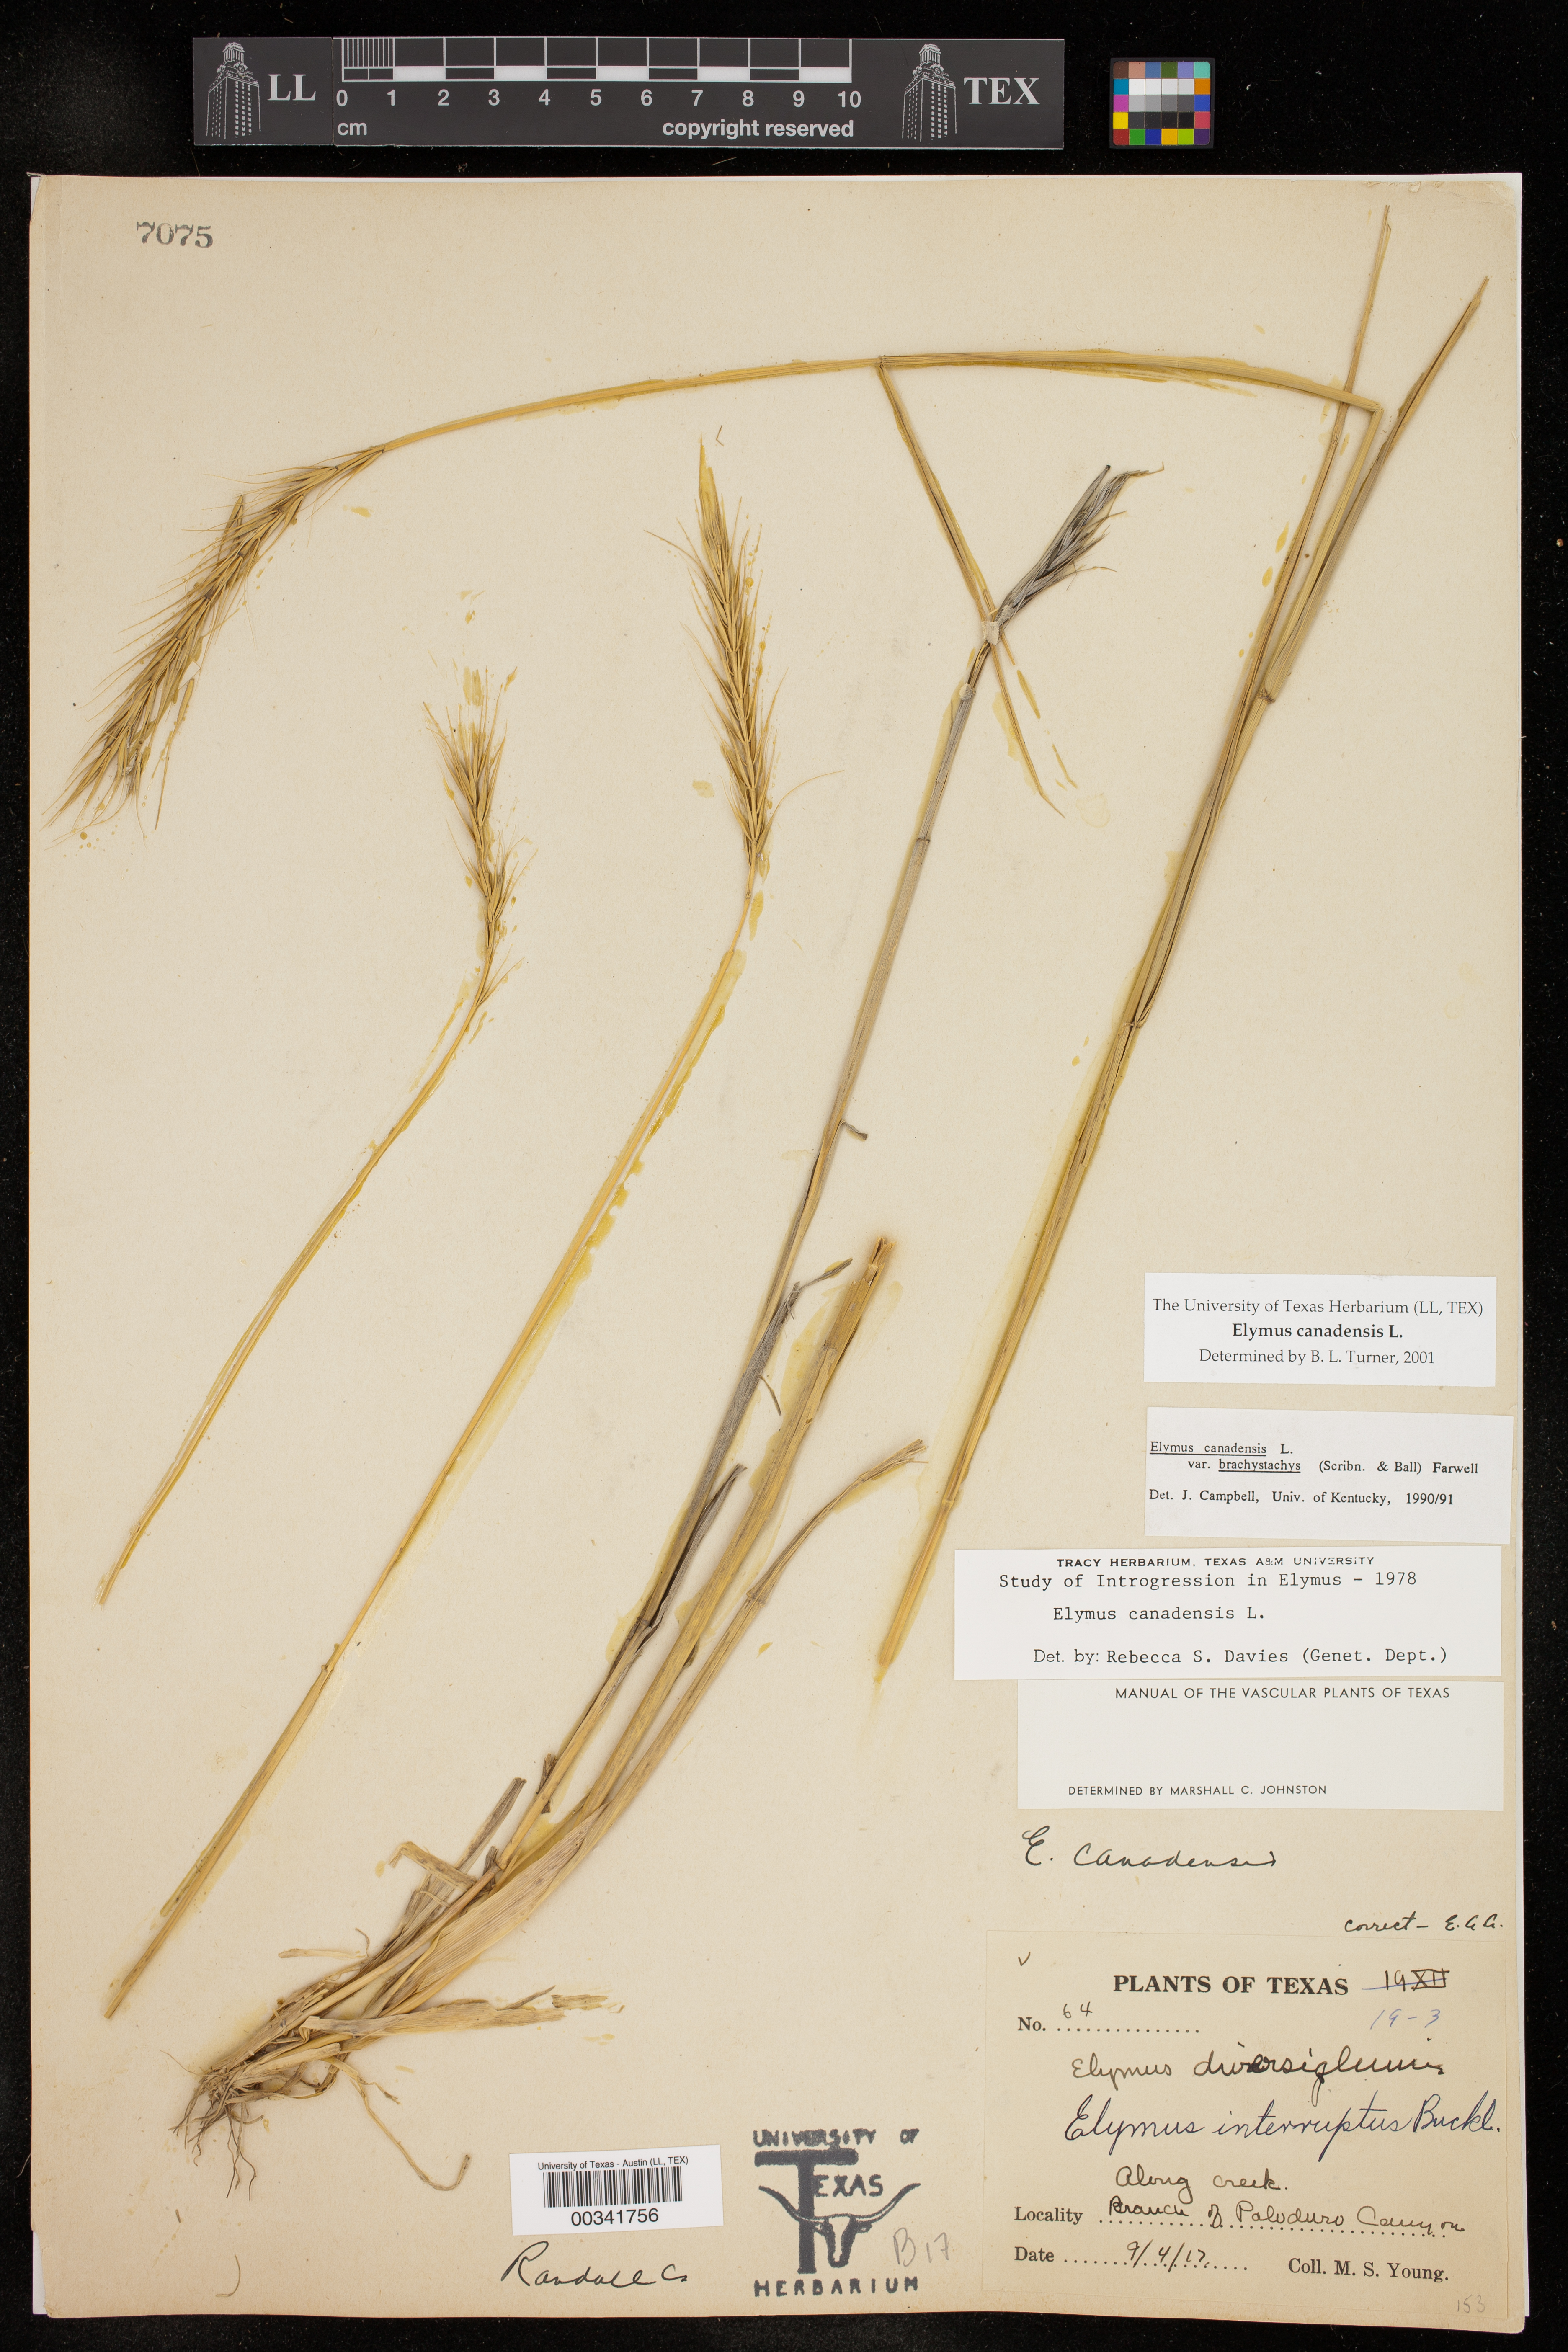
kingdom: Plantae
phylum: Tracheophyta
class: Liliopsida
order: Poales
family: Poaceae
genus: Elymus
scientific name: Elymus canadensis
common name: Canada wild rye
